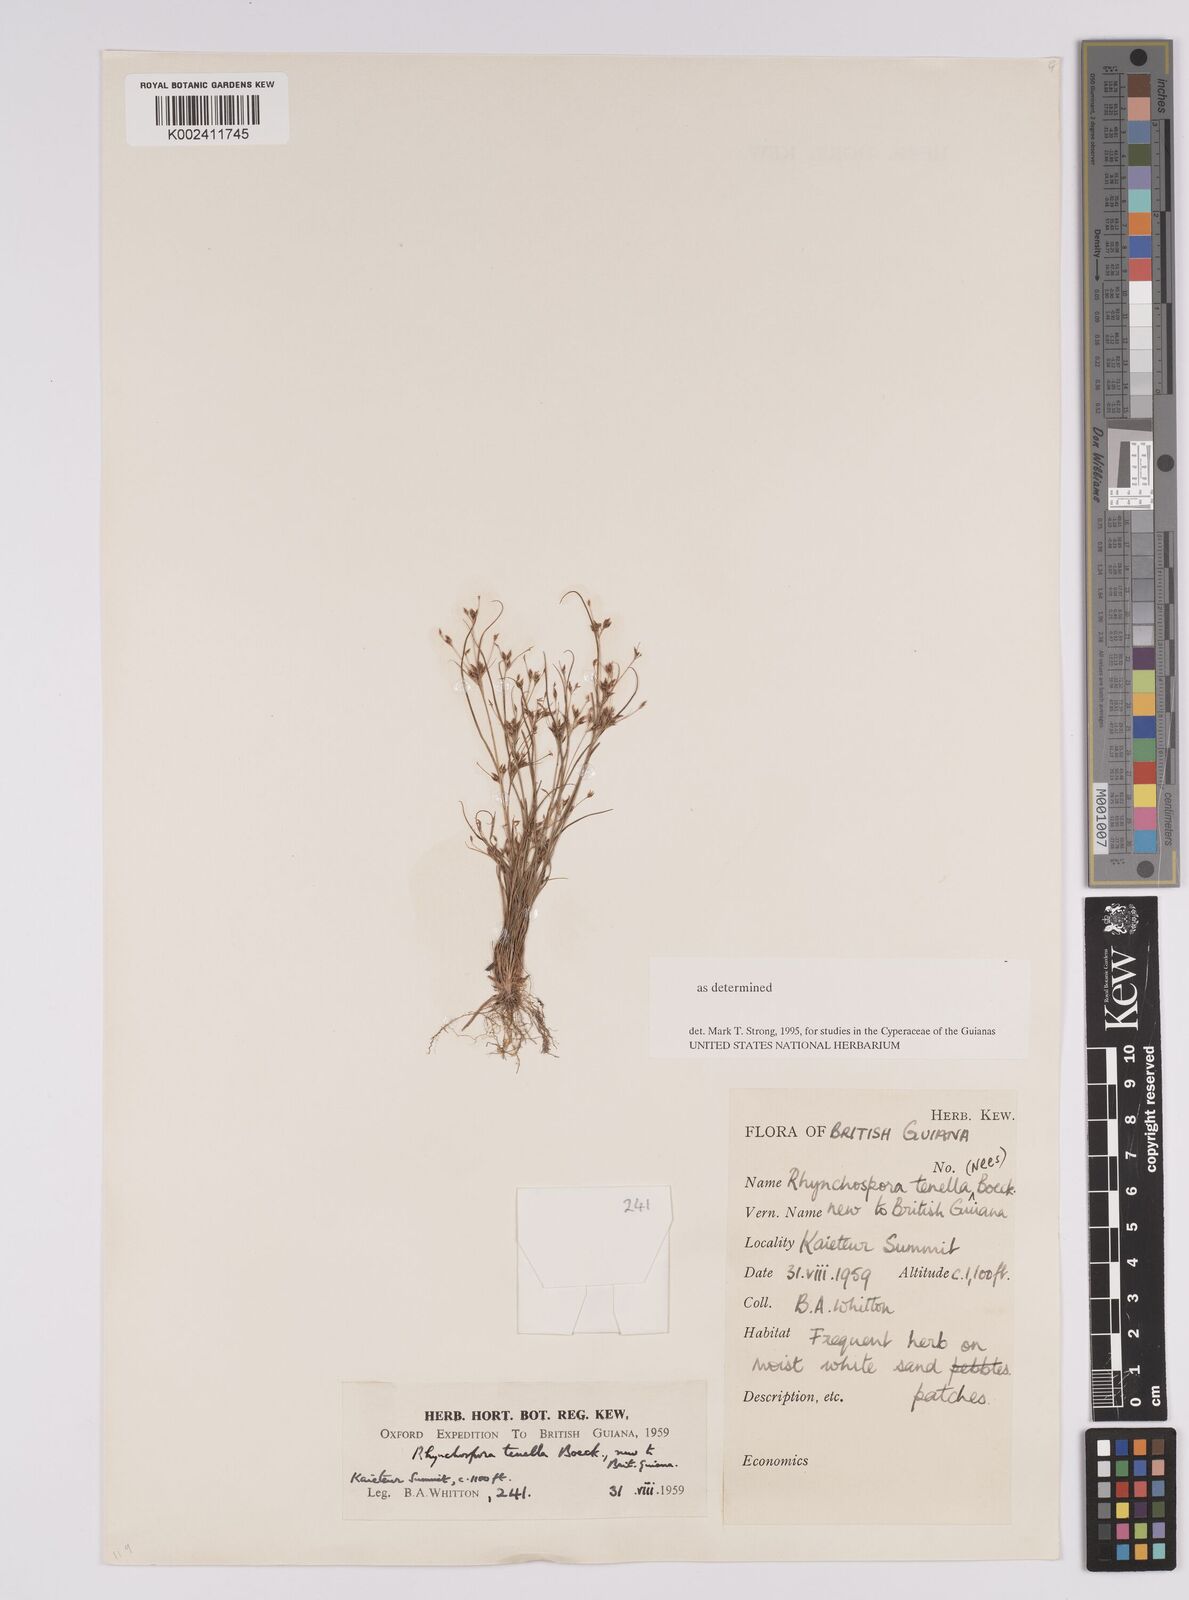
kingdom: Plantae
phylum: Tracheophyta
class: Liliopsida
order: Poales
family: Cyperaceae
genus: Rhynchospora
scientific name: Rhynchospora tenella
